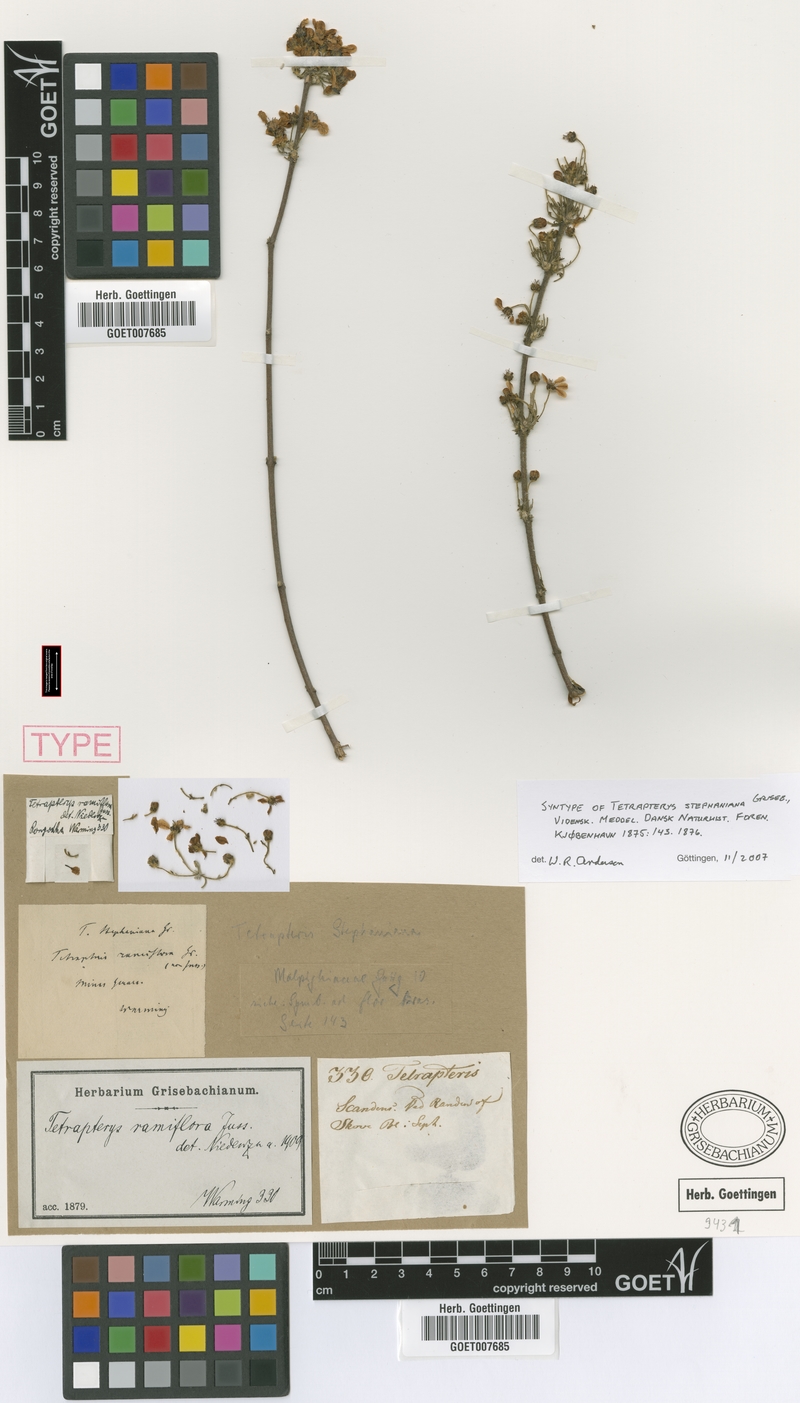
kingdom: Plantae
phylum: Tracheophyta
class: Magnoliopsida
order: Malpighiales
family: Malpighiaceae
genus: Glicophyllum
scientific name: Glicophyllum ramiflorum
